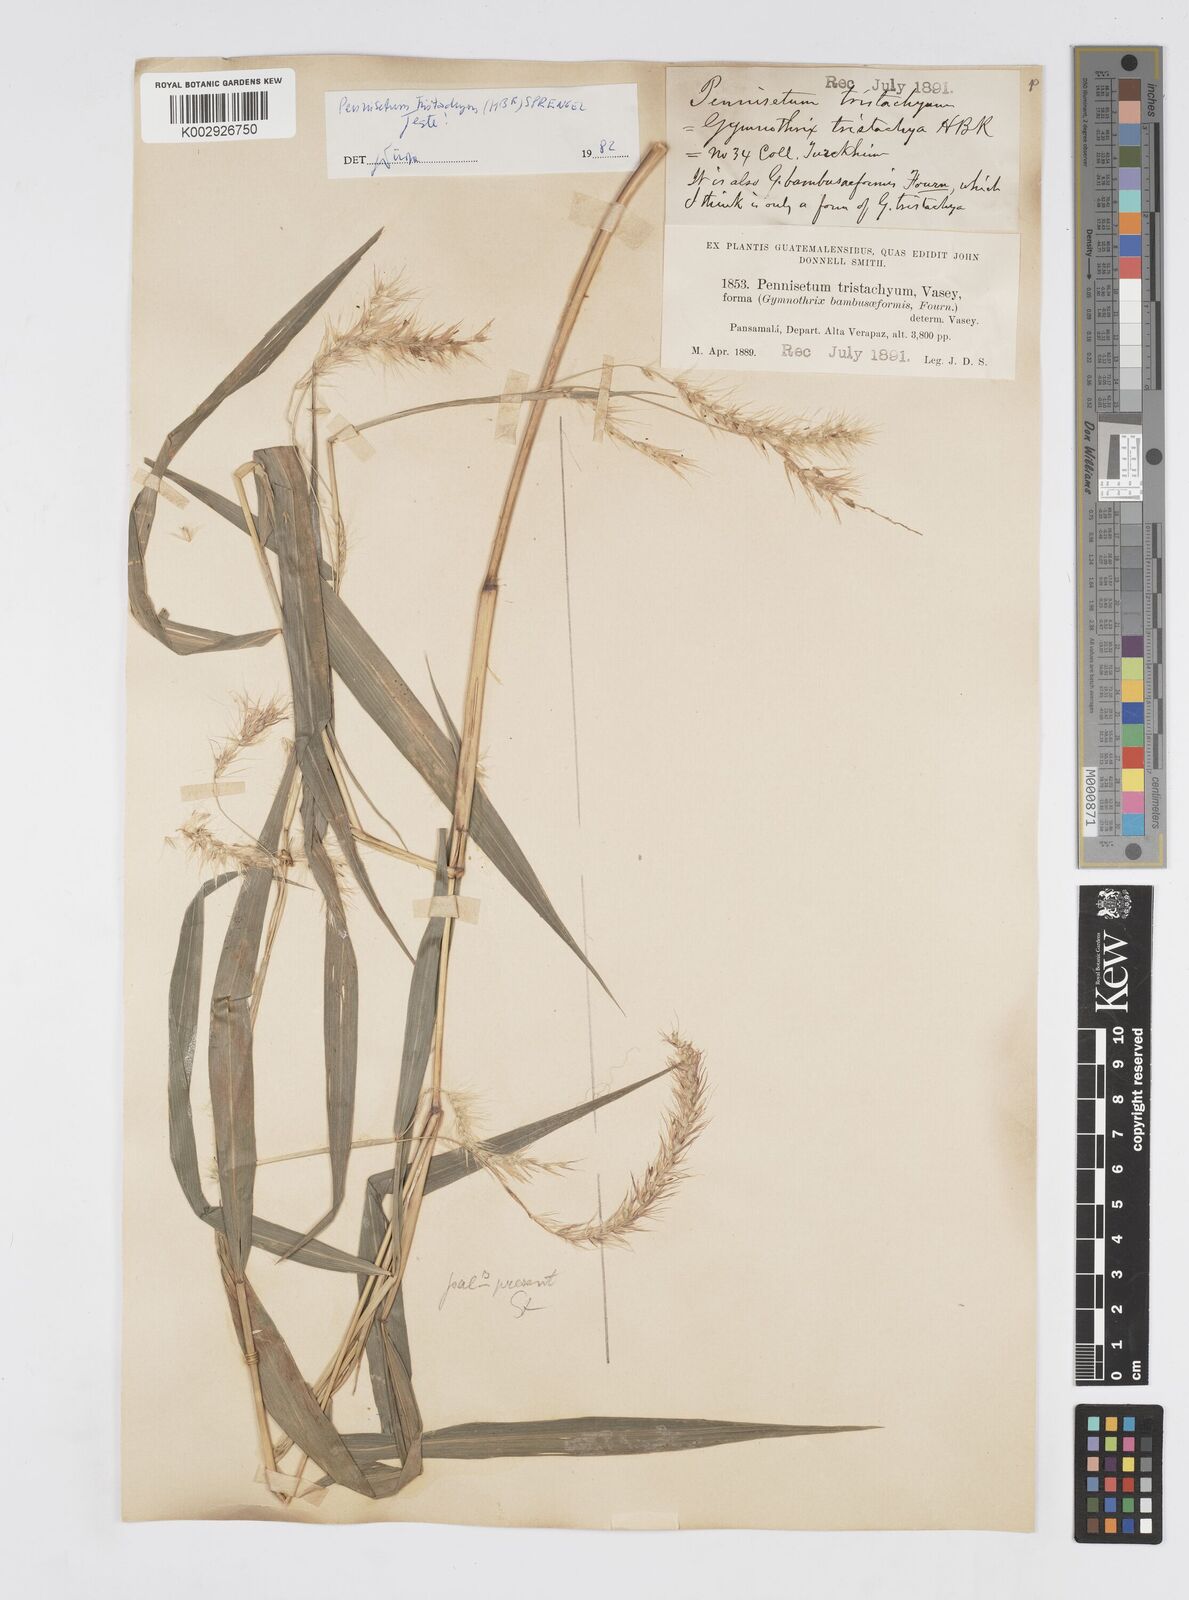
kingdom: Plantae
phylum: Tracheophyta
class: Liliopsida
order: Poales
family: Poaceae
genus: Cenchrus
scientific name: Cenchrus prolificus
